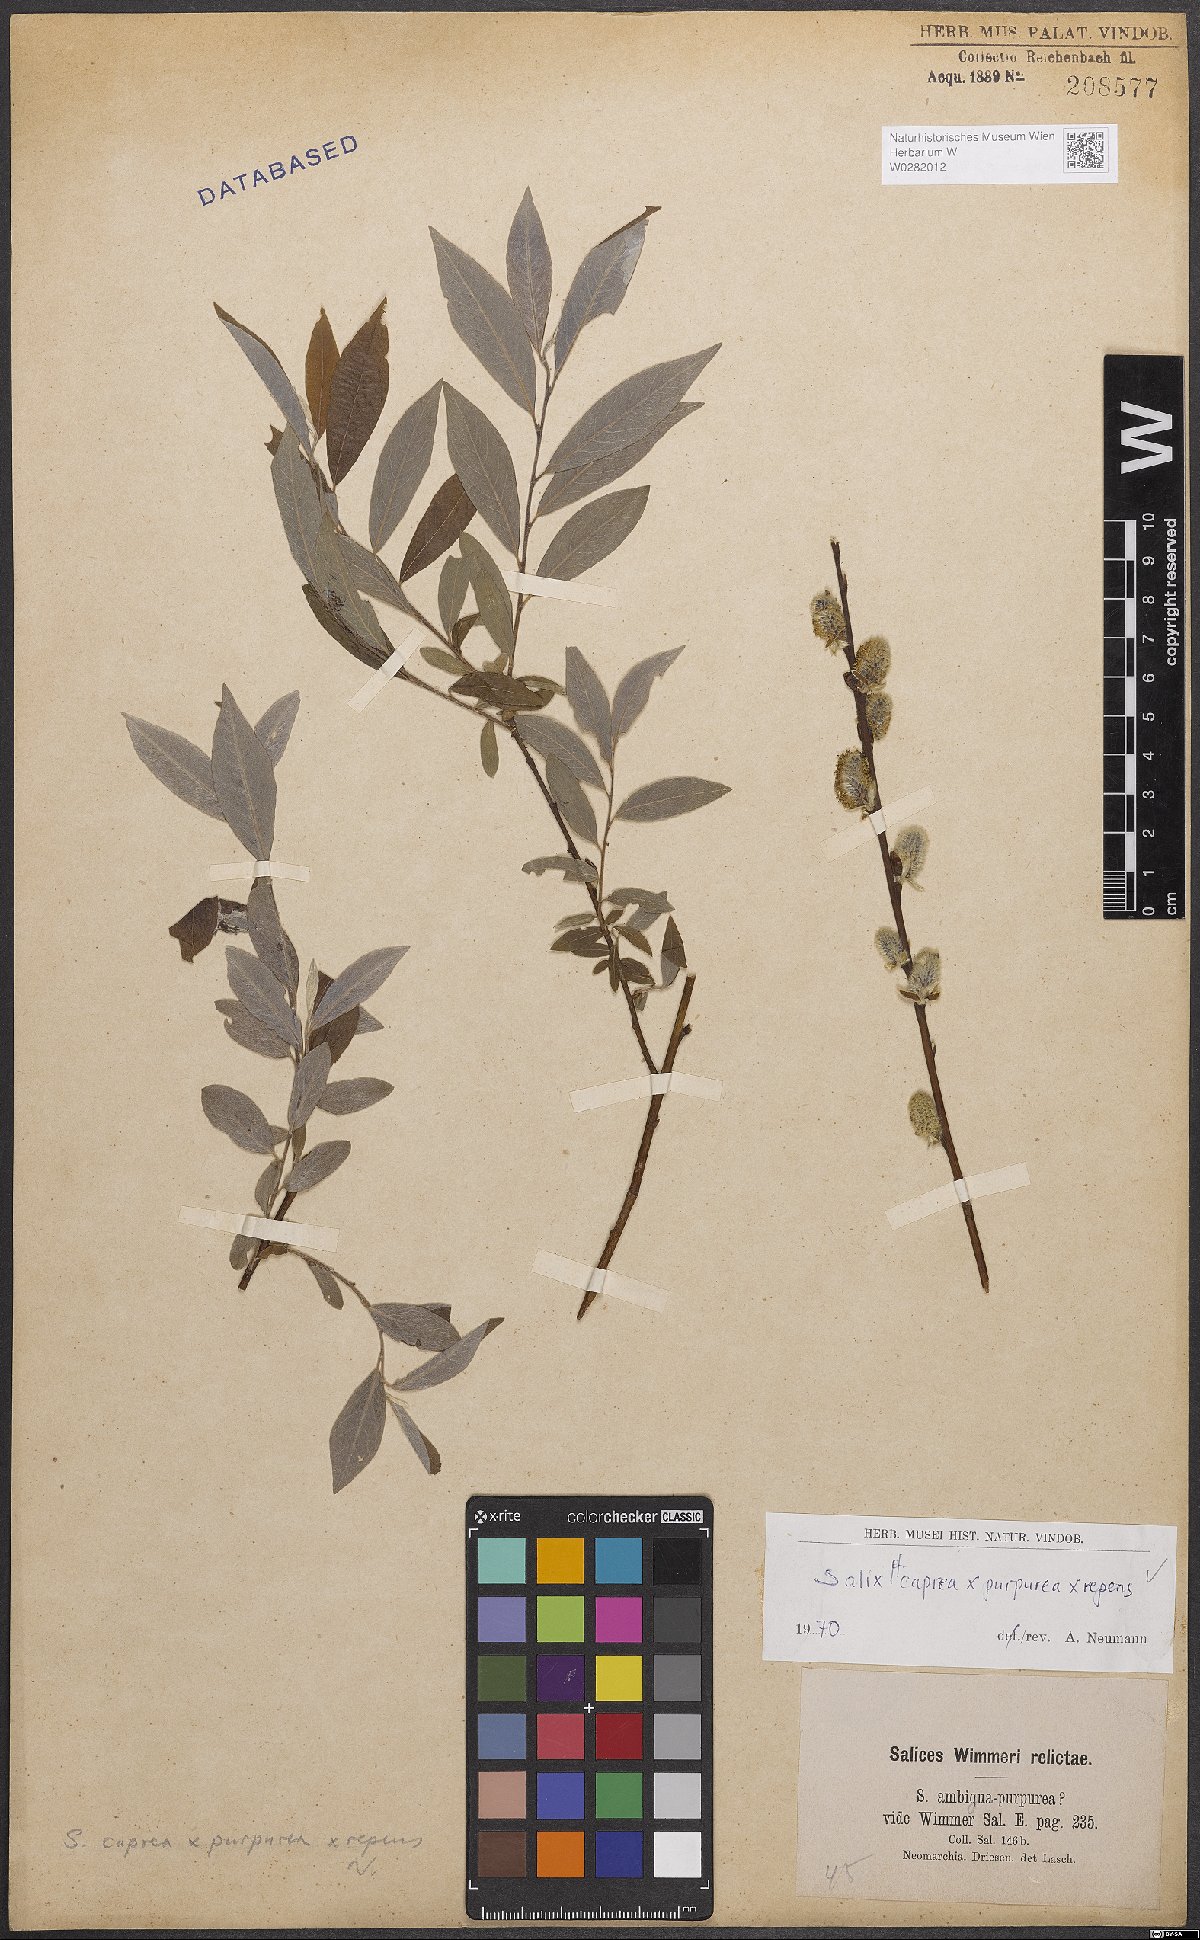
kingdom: Plantae
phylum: Tracheophyta
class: Magnoliopsida
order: Malpighiales
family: Salicaceae
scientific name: Salicaceae
